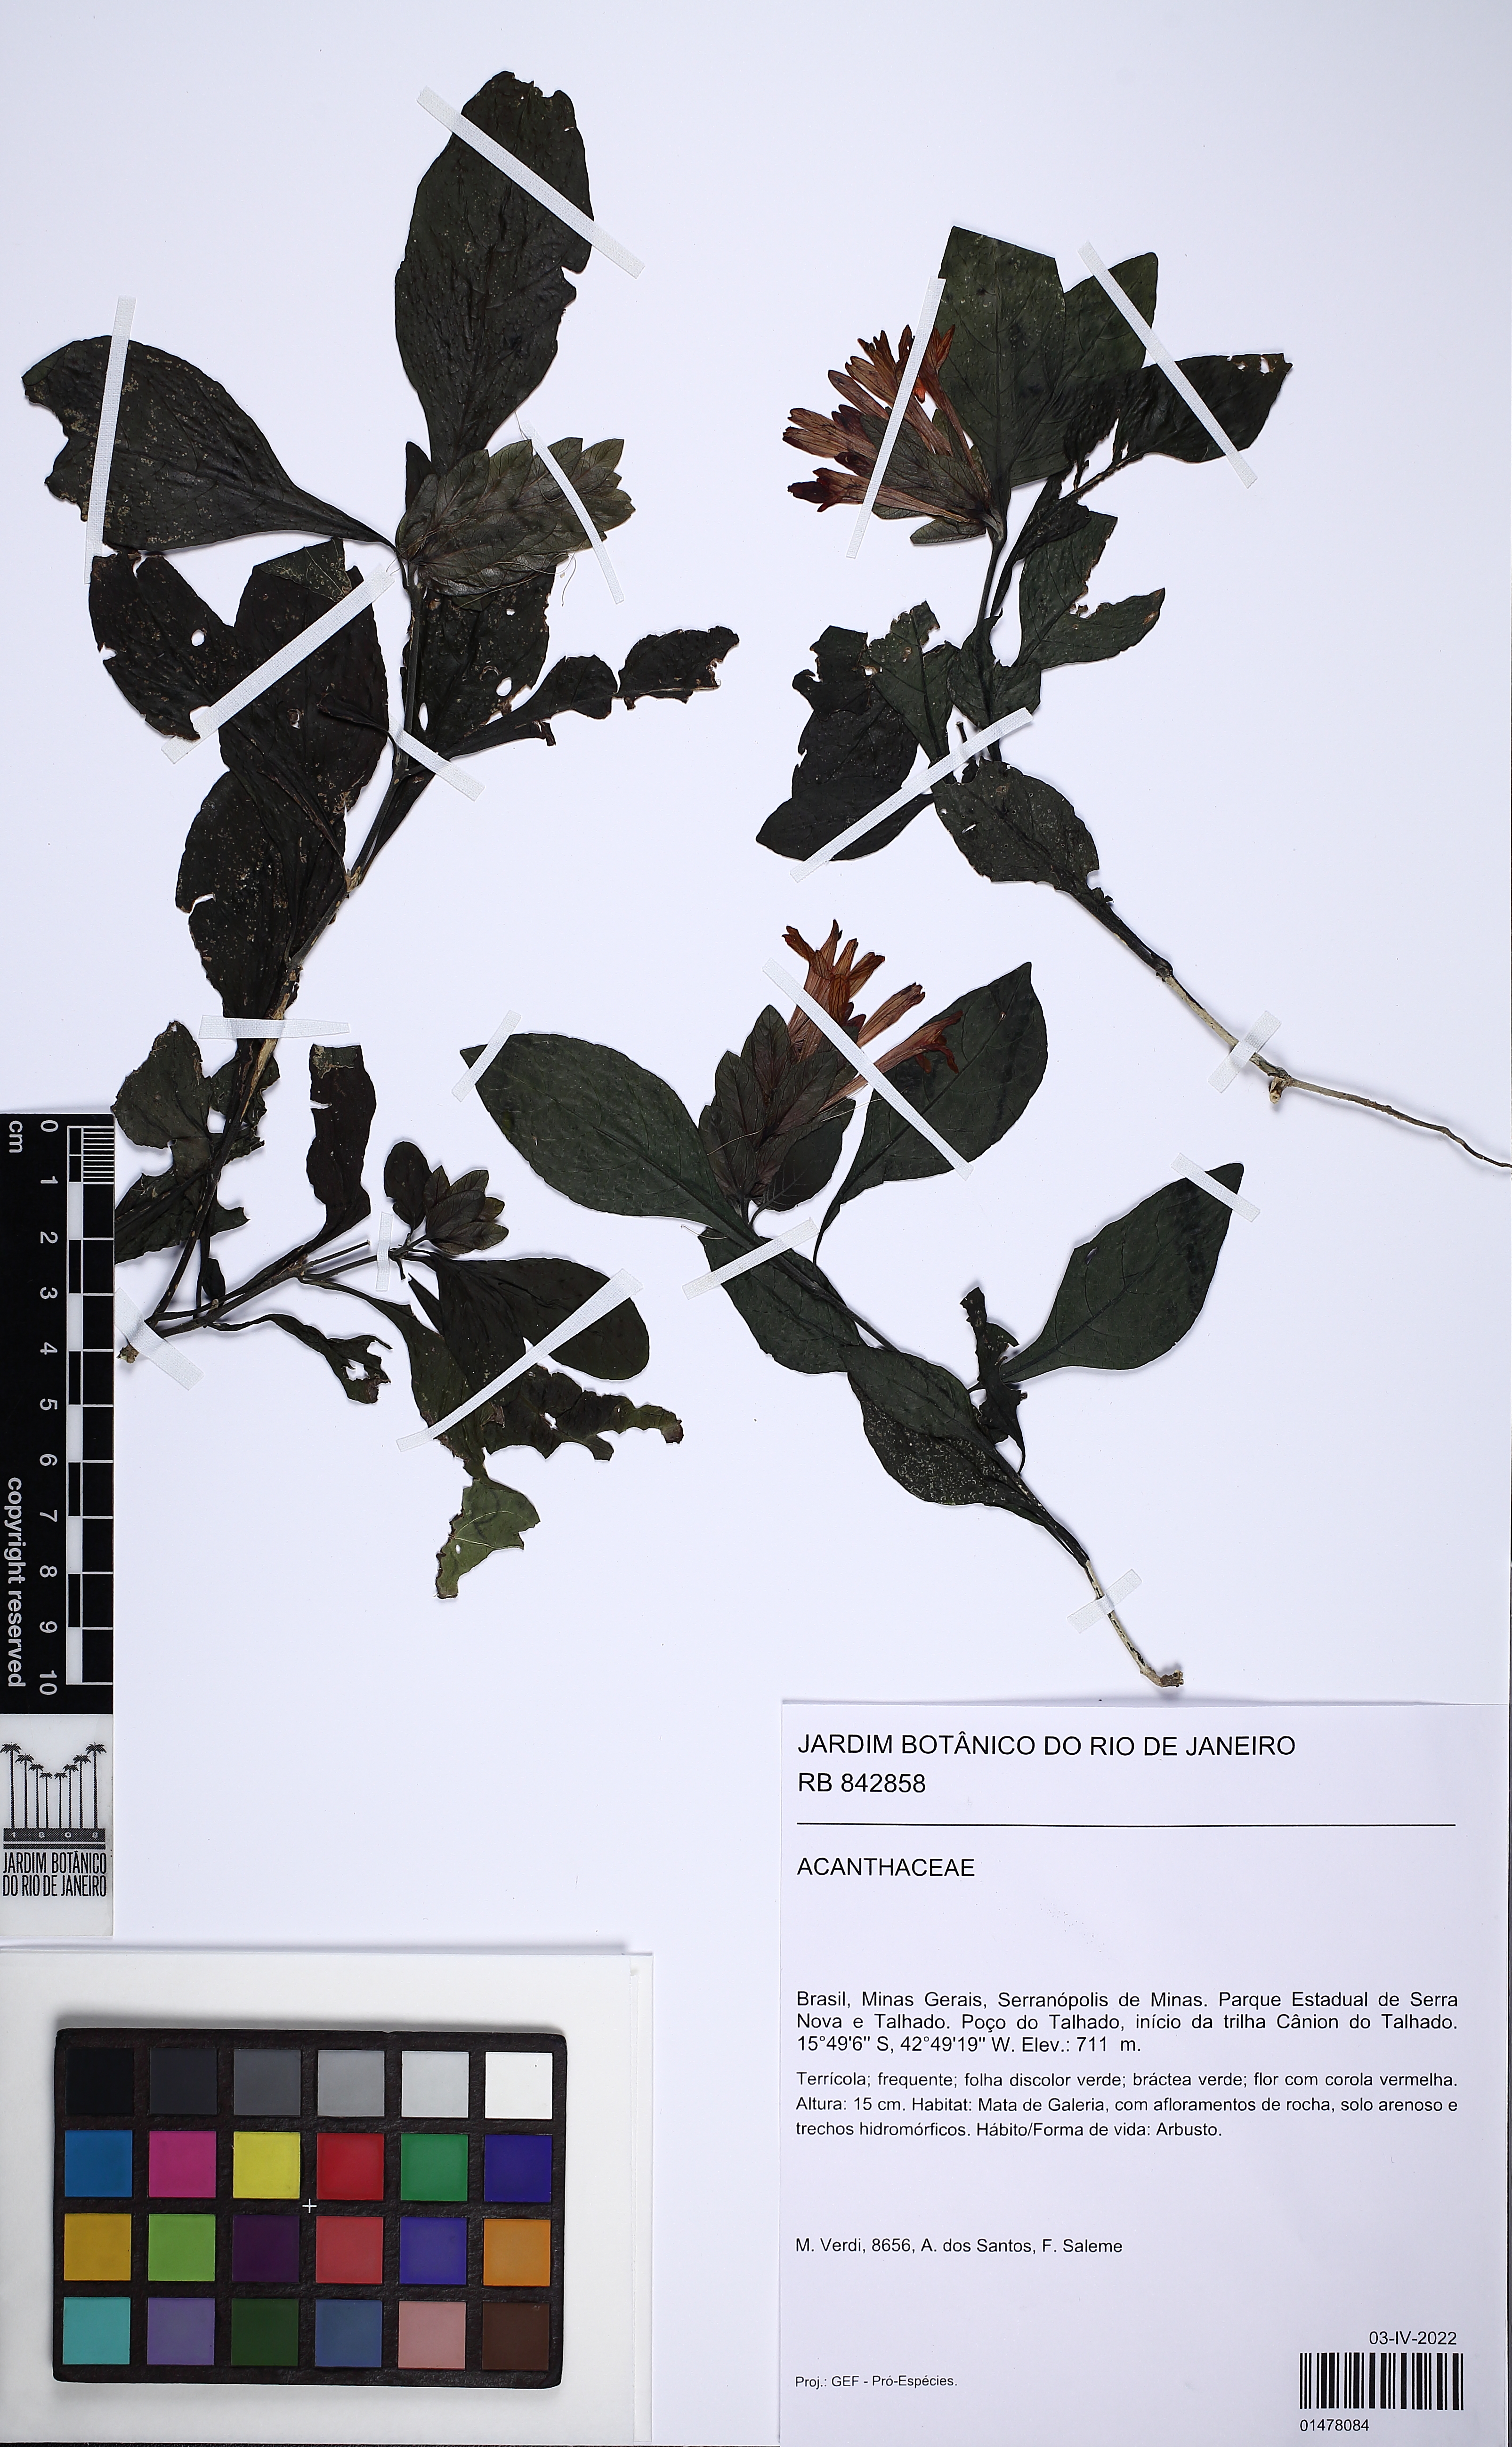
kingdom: Plantae
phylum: Tracheophyta
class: Magnoliopsida
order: Lamiales
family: Acanthaceae
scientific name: Acanthaceae
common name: Acanthaceae
